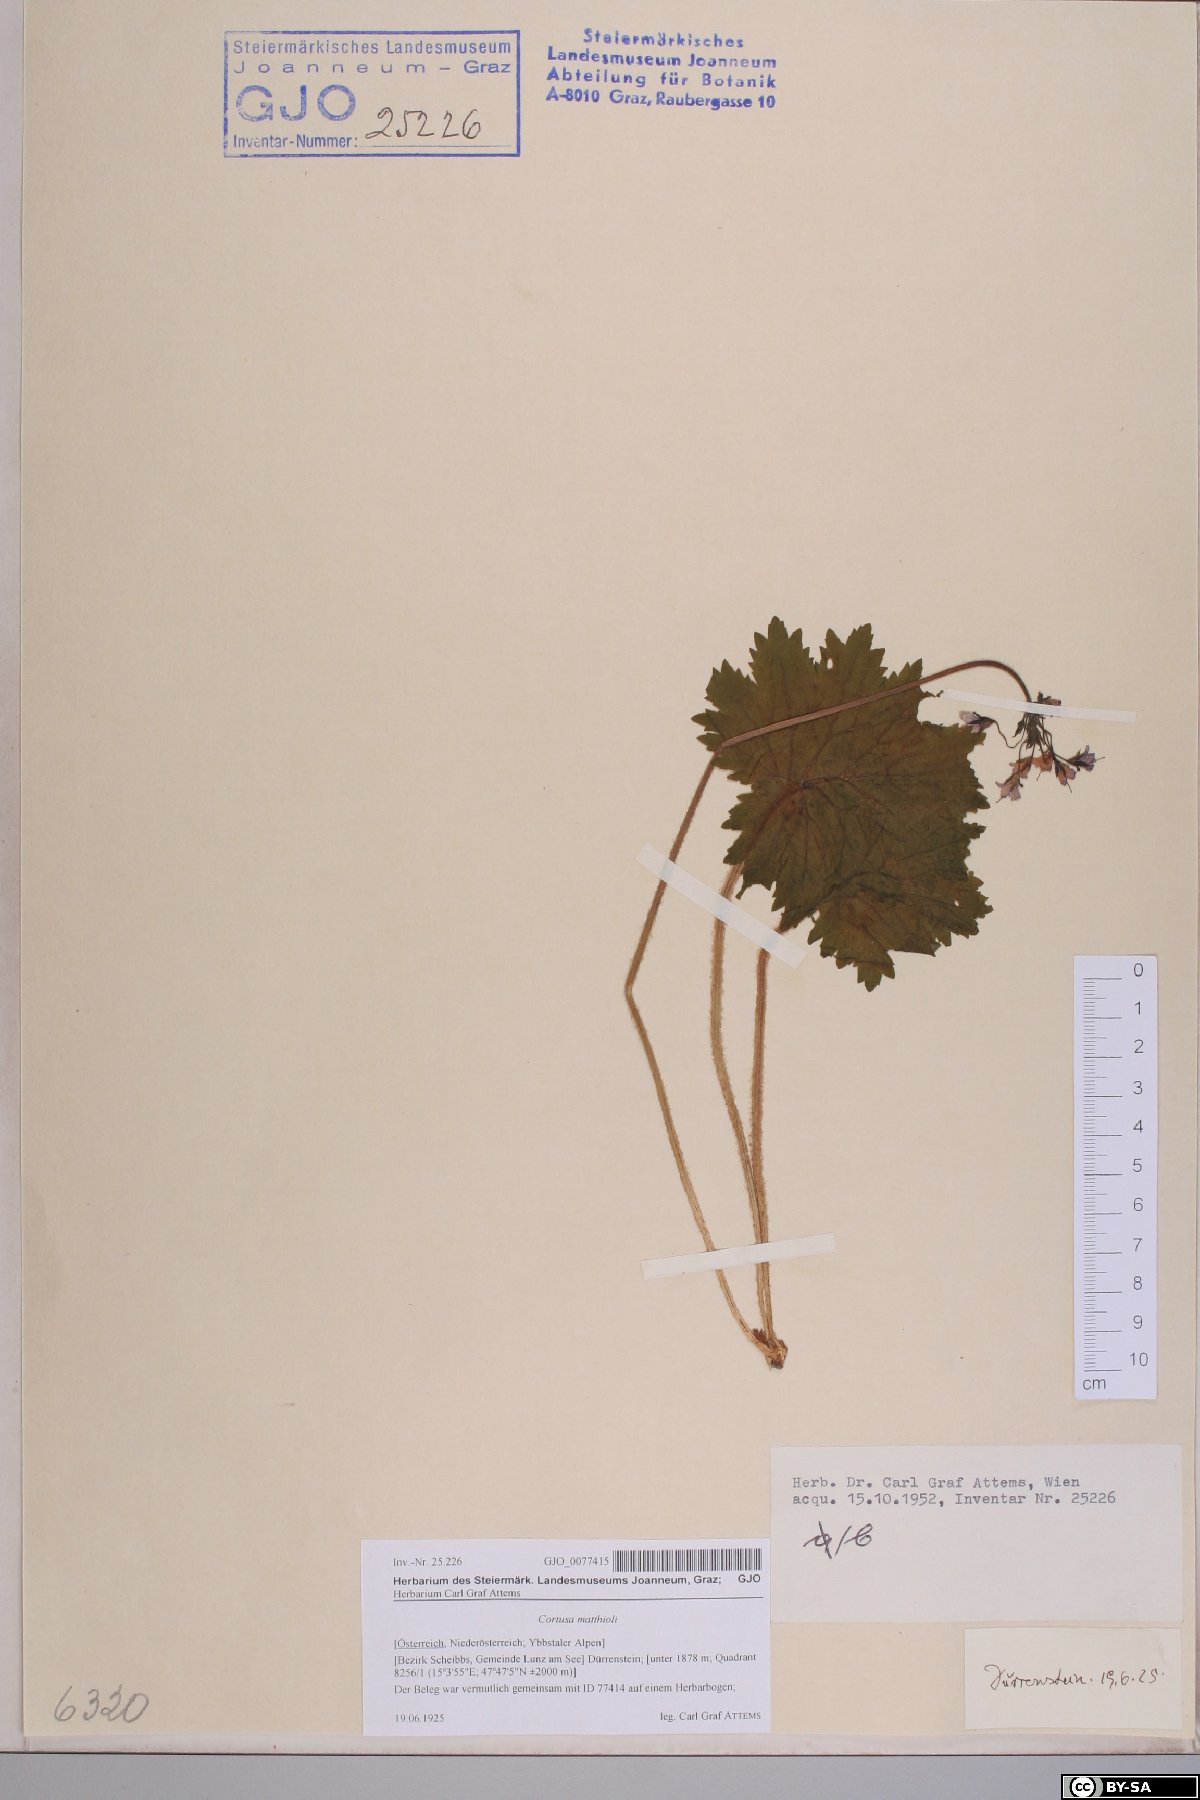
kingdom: Plantae
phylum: Tracheophyta
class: Magnoliopsida
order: Ericales
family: Primulaceae
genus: Primula
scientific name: Primula matthioli
